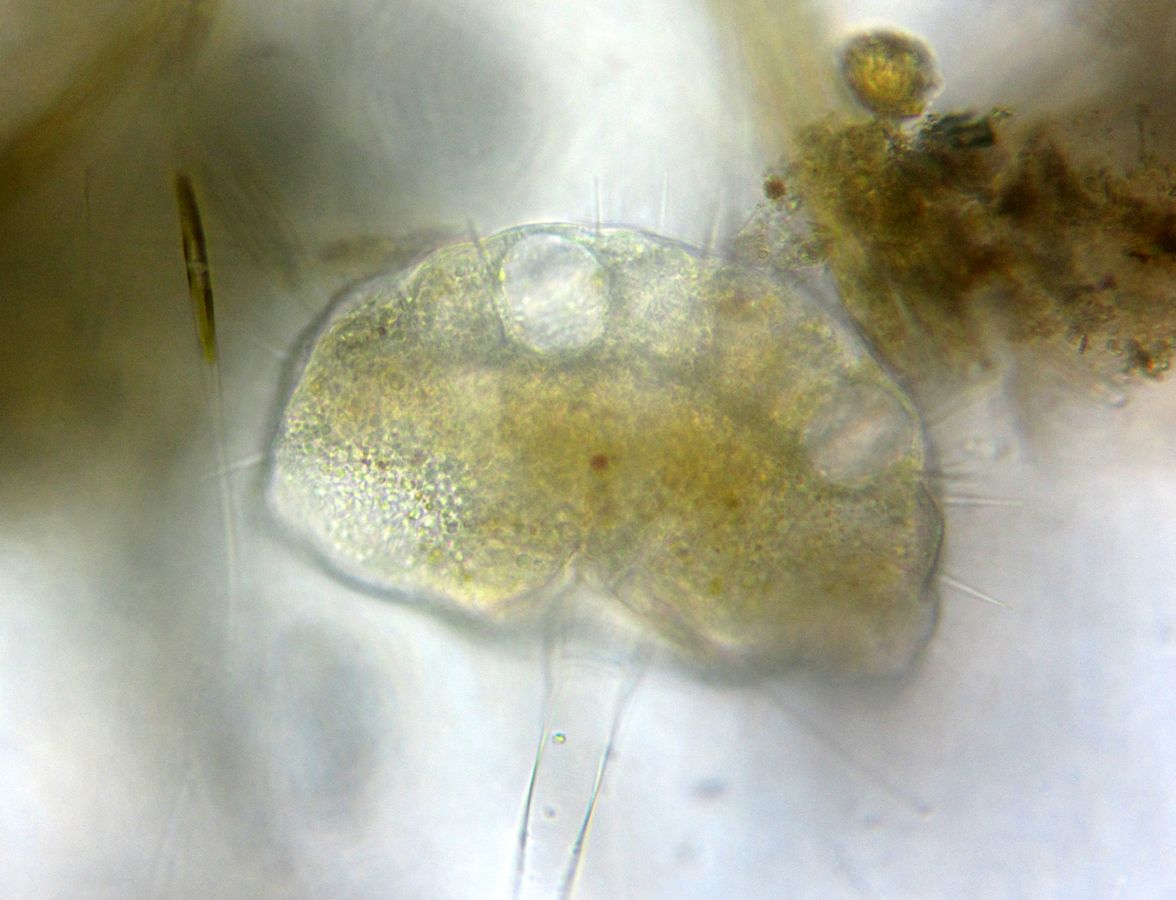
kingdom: Chromista
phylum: Ciliophora
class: Phyllopharyngea
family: Ephelotidae
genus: Ephelota
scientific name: Ephelota gemmipara
